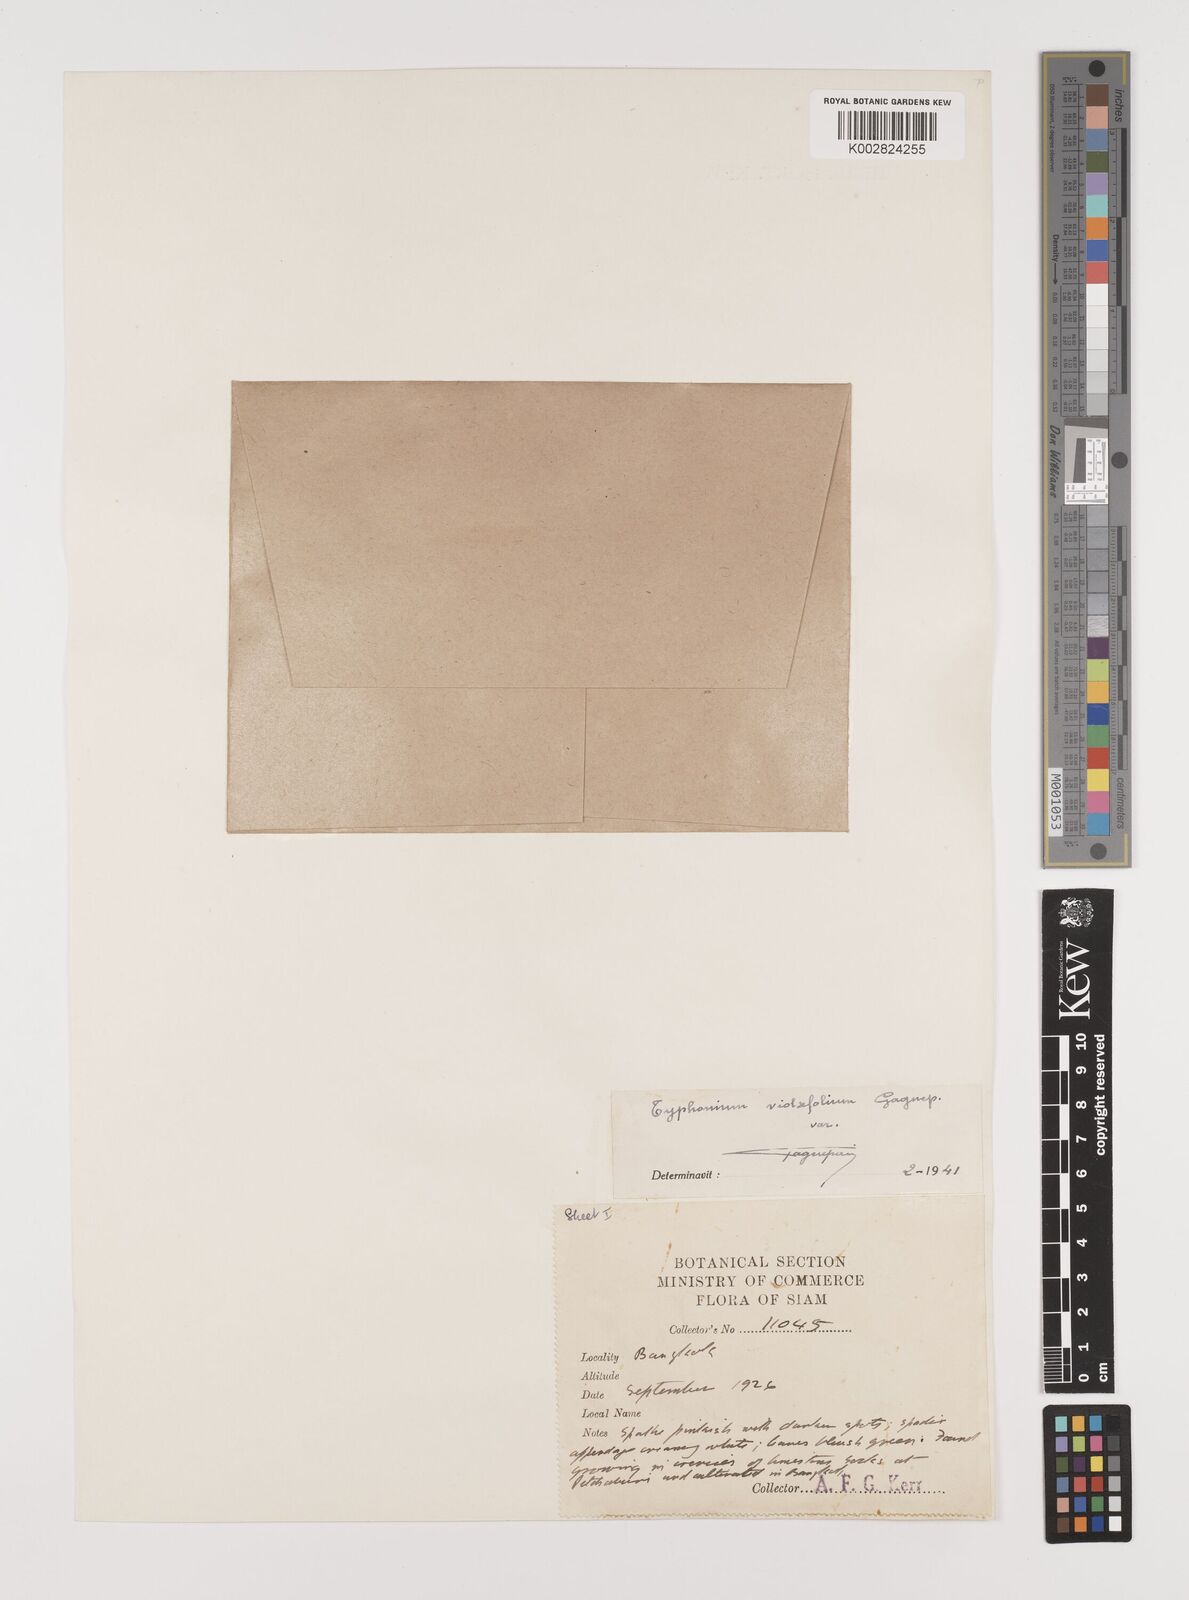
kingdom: Plantae
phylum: Tracheophyta
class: Liliopsida
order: Alismatales
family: Araceae
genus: Typhonium
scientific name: Typhonium violifolium
